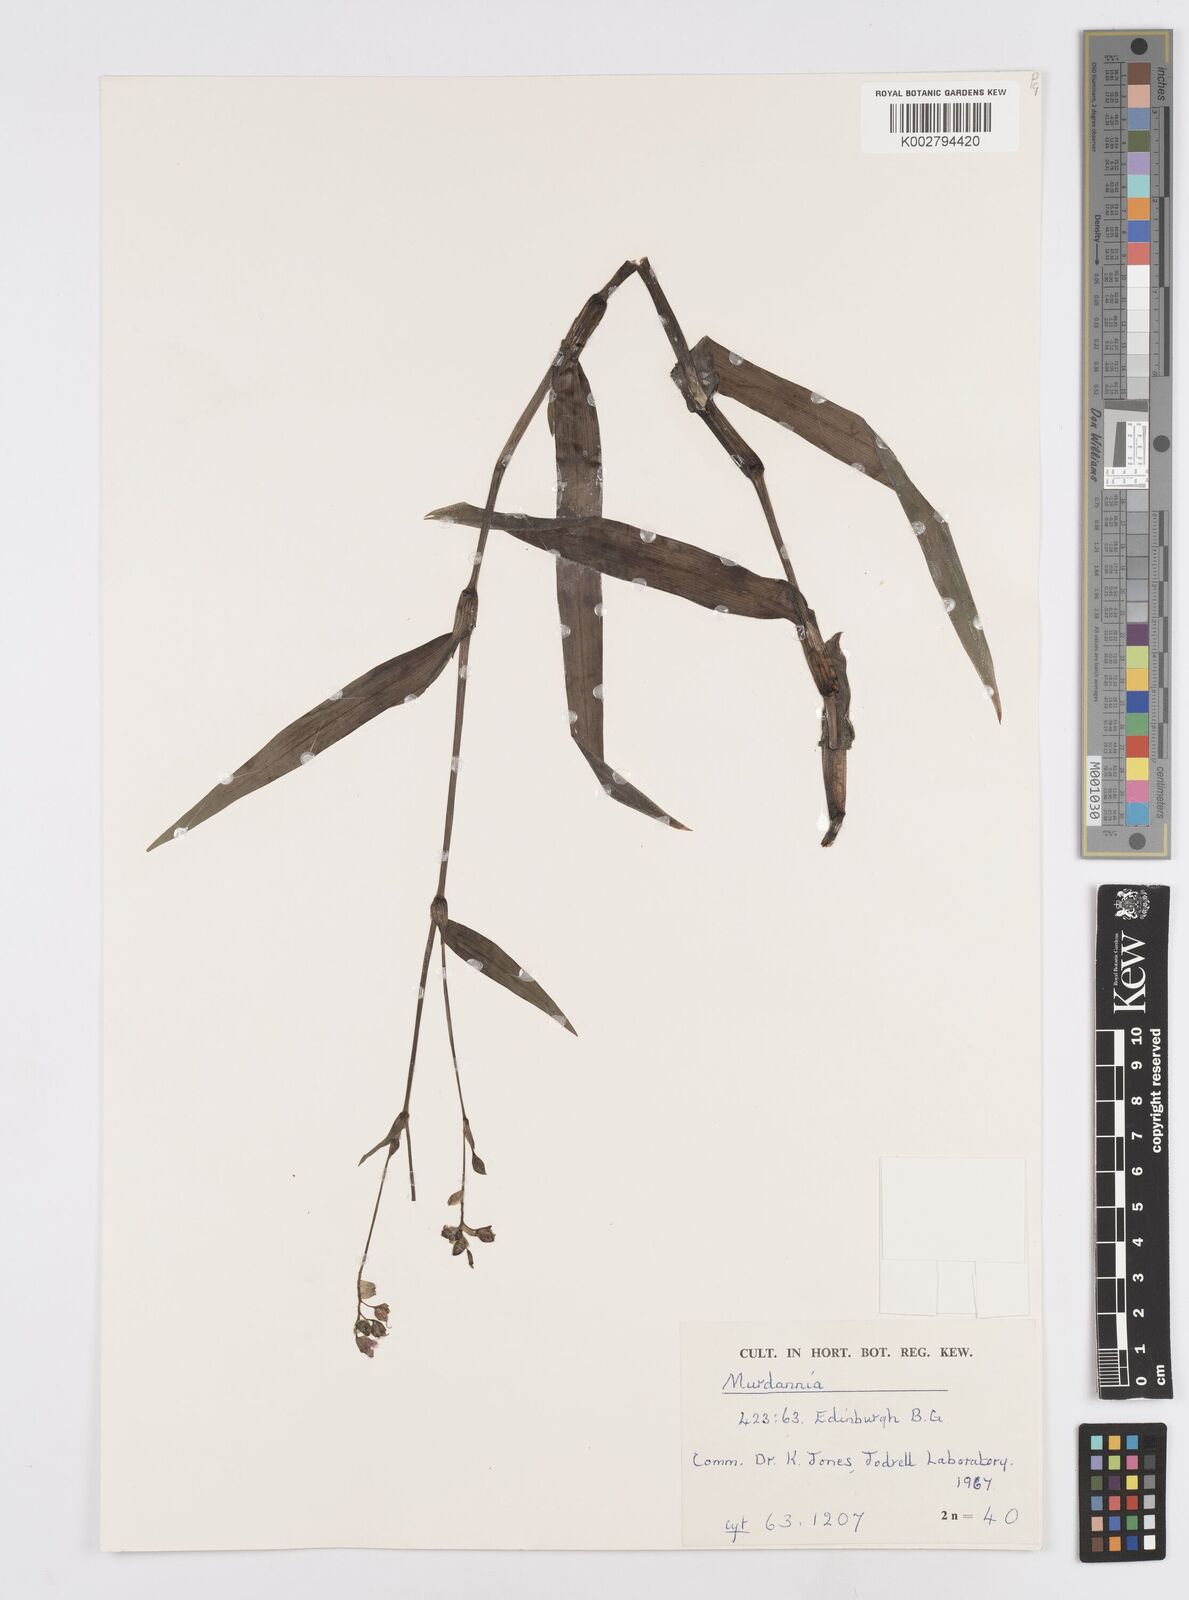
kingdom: Plantae
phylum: Tracheophyta
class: Liliopsida
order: Commelinales
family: Commelinaceae
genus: Murdannia
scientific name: Murdannia
